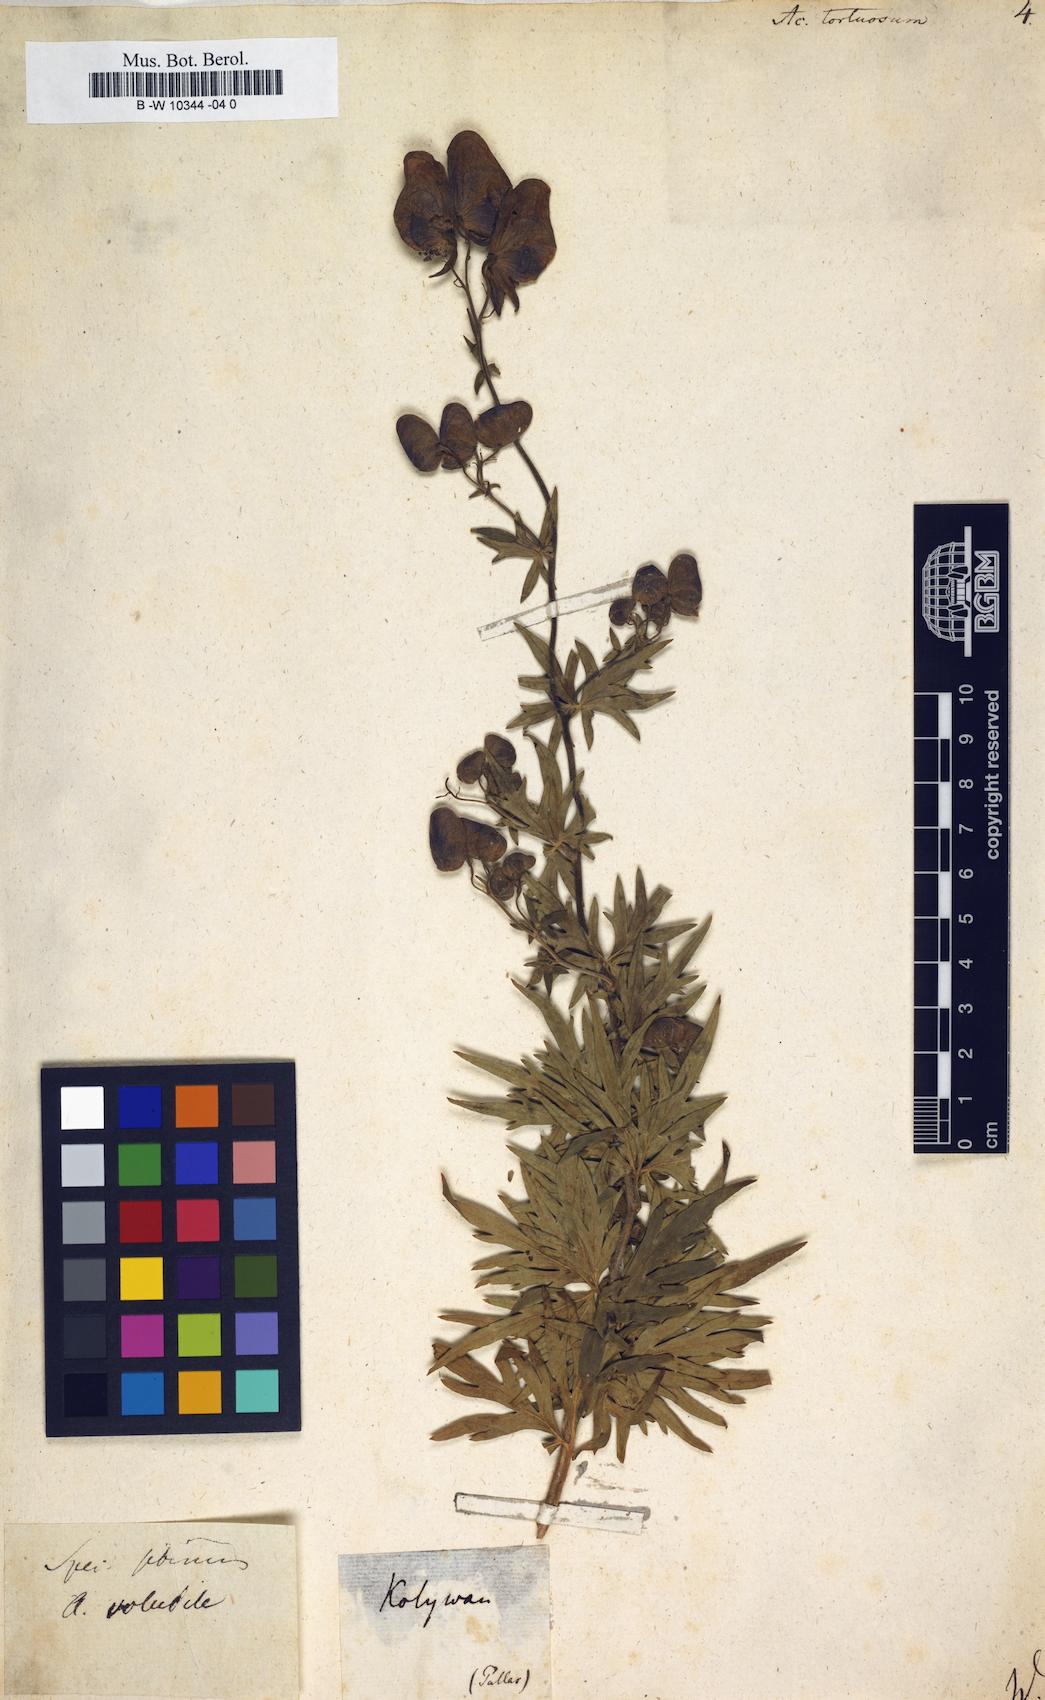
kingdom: Plantae
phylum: Tracheophyta
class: Magnoliopsida
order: Ranunculales
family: Ranunculaceae
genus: Aconitum
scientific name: Aconitum volubile
